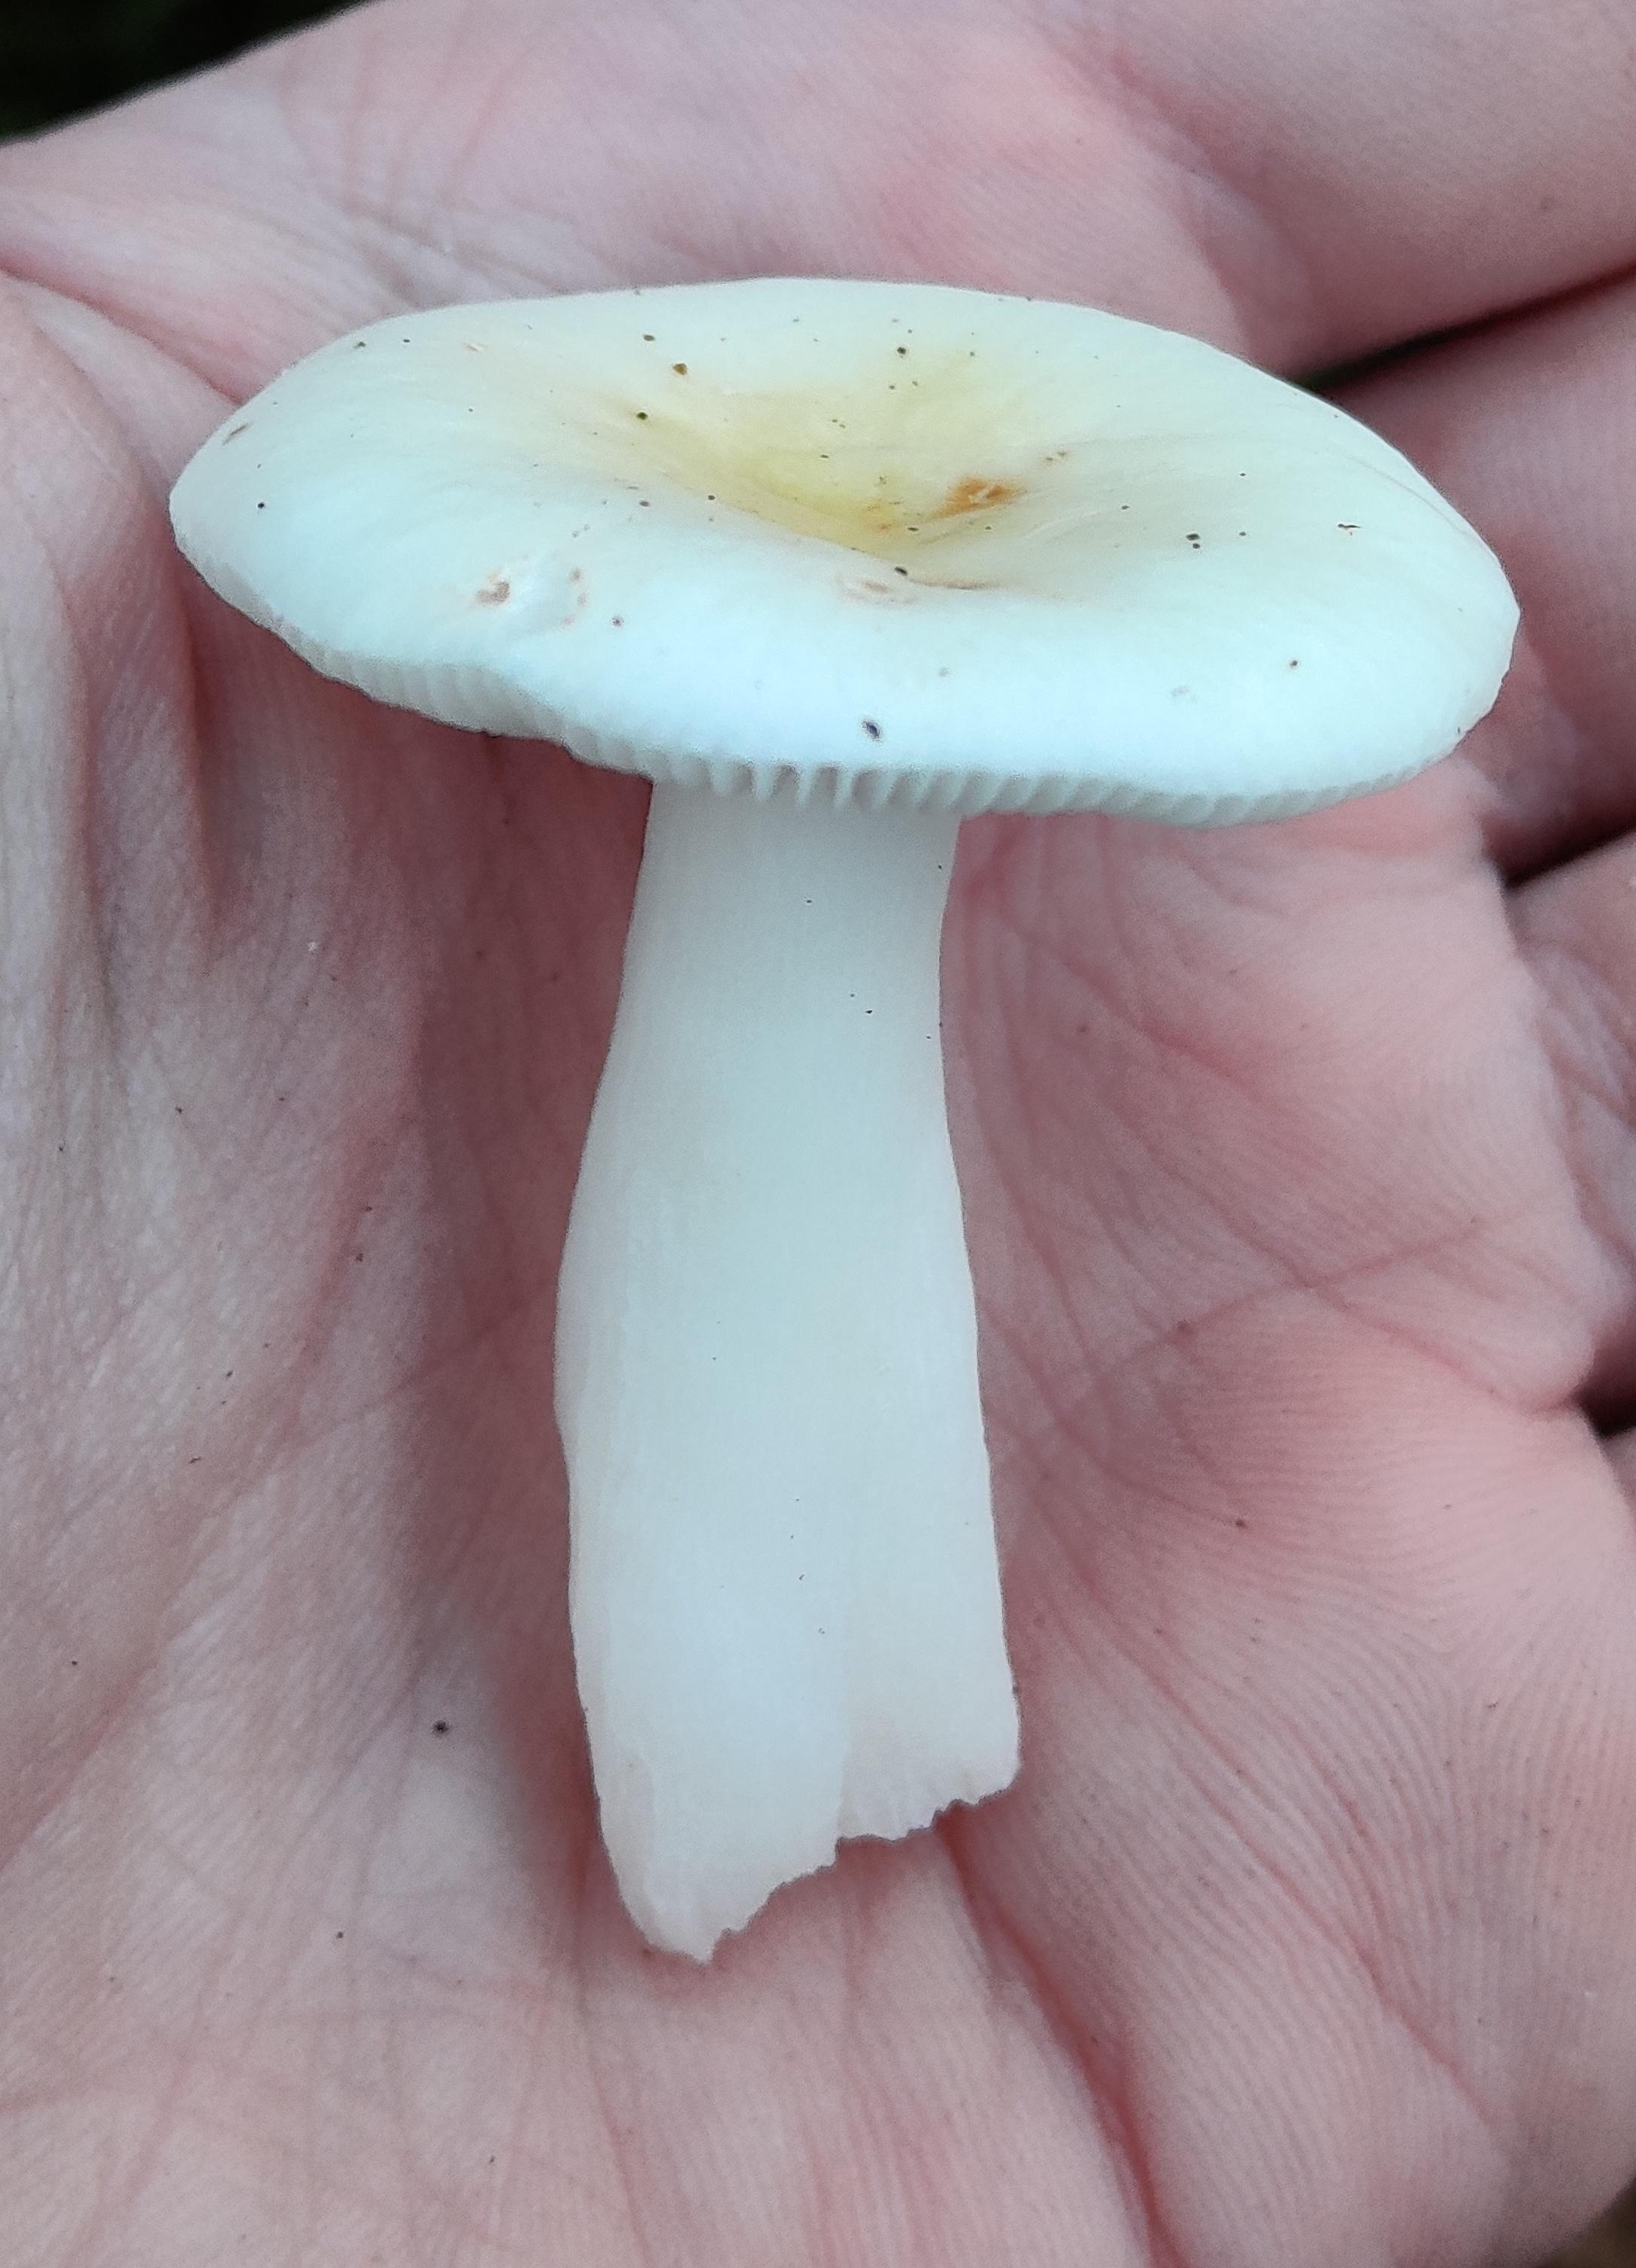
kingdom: Fungi
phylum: Basidiomycota
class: Agaricomycetes
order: Russulales
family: Russulaceae
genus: Russula
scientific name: Russula fragilis
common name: Fragile brittlegill
